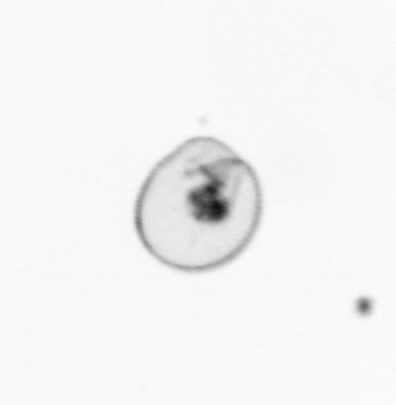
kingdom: Chromista
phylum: Myzozoa
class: Dinophyceae
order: Noctilucales
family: Noctilucaceae
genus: Noctiluca
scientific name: Noctiluca scintillans
